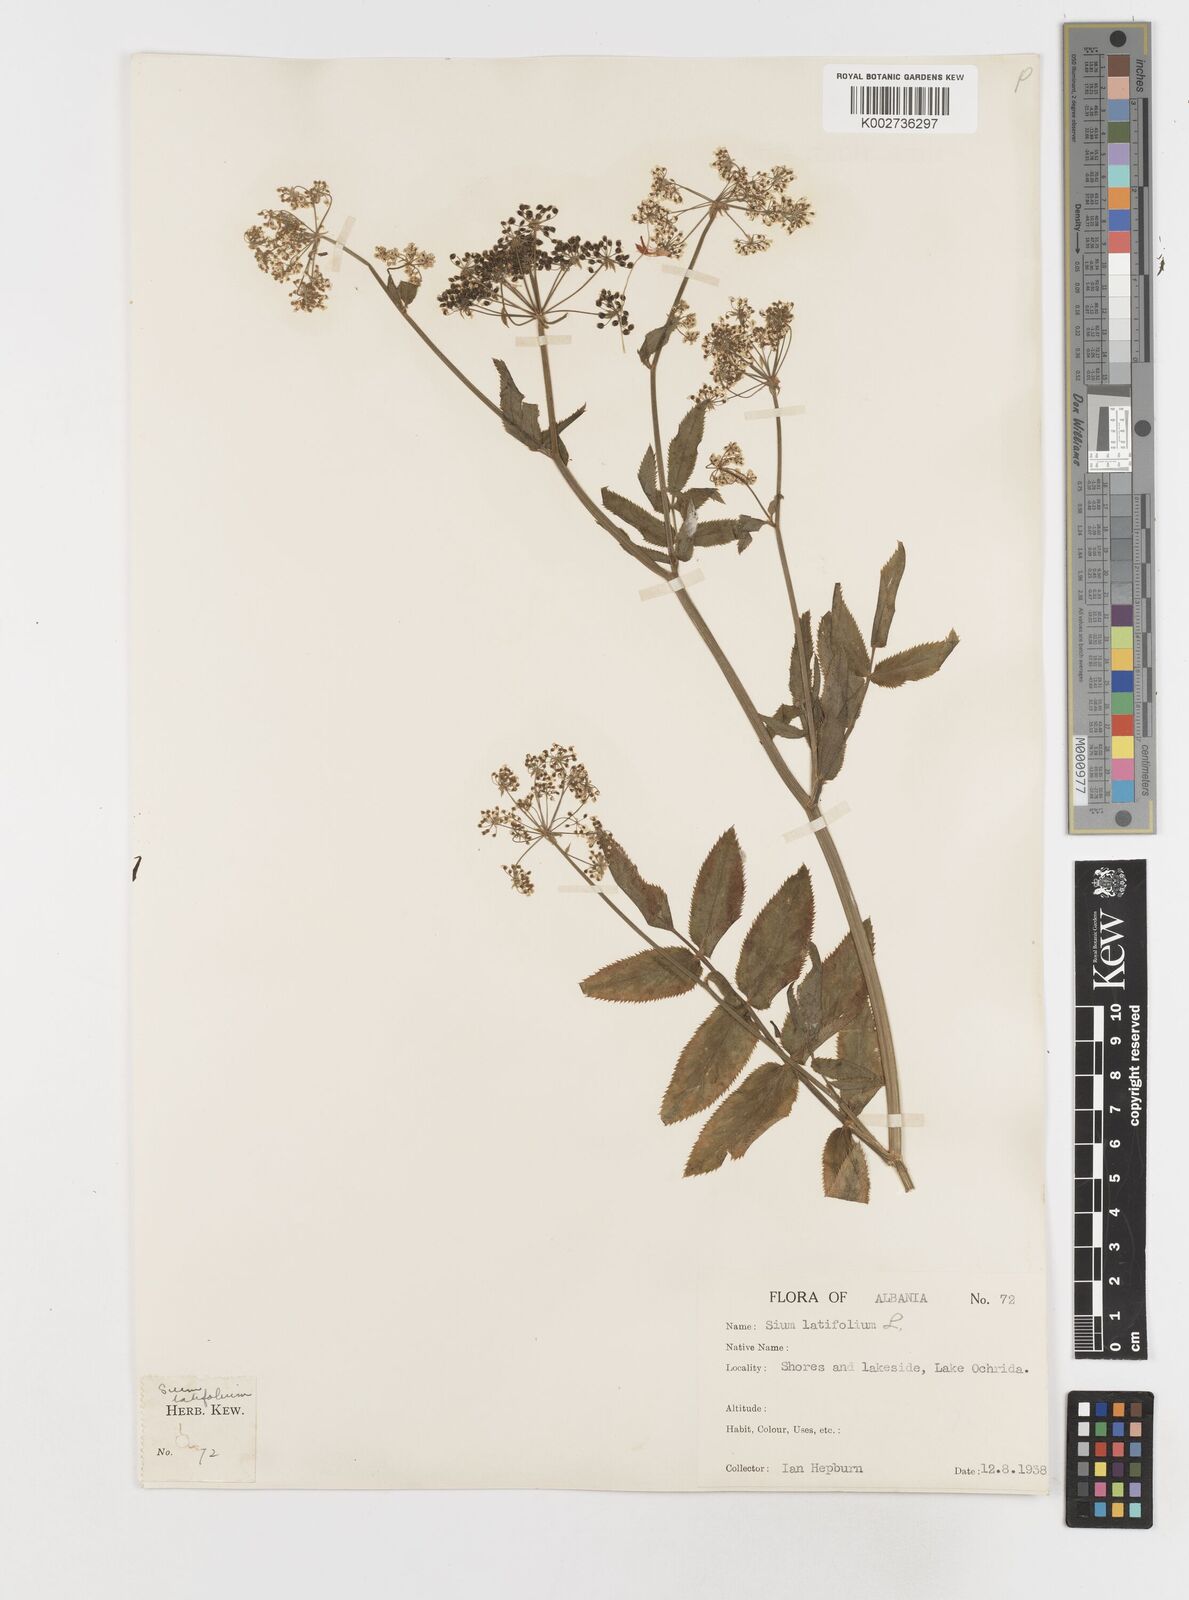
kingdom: Plantae
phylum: Tracheophyta
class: Magnoliopsida
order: Apiales
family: Apiaceae
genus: Sium
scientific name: Sium latifolium
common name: Greater water-parsnip
